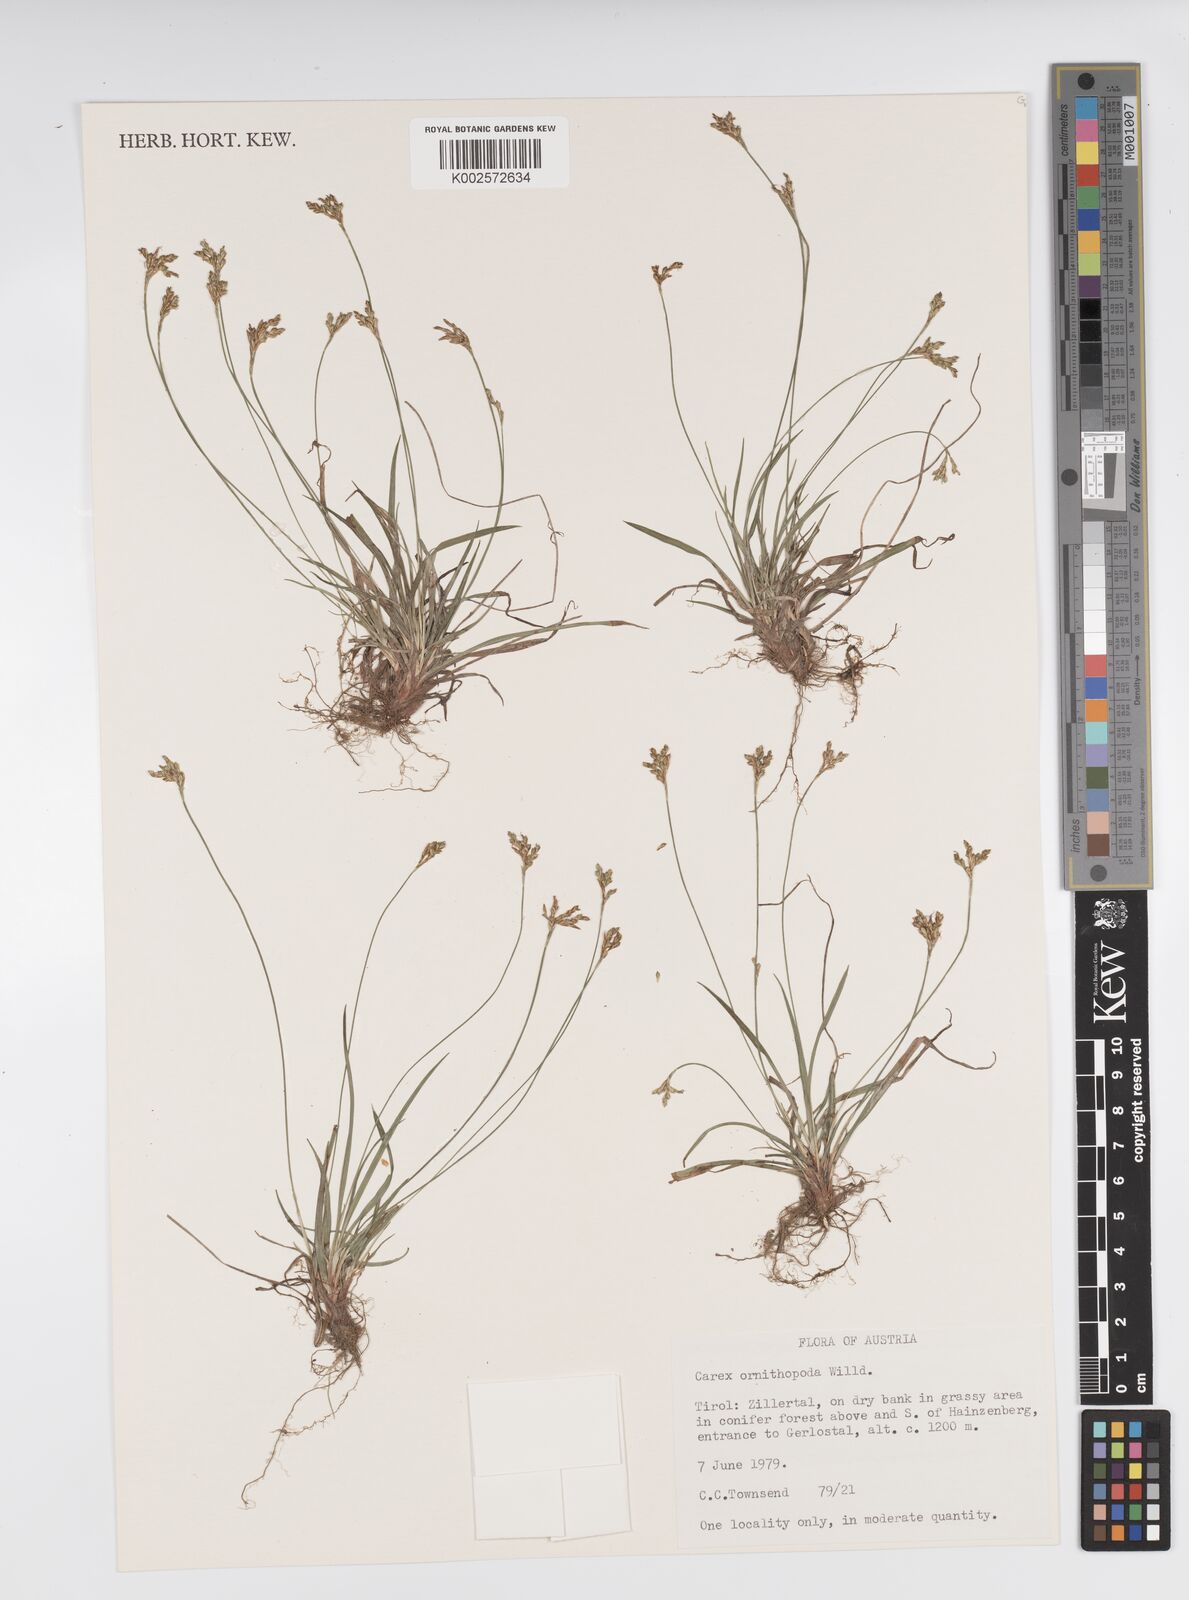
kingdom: Plantae
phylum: Tracheophyta
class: Liliopsida
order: Poales
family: Cyperaceae
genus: Carex
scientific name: Carex ornithopoda
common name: Bird's-foot sedge
